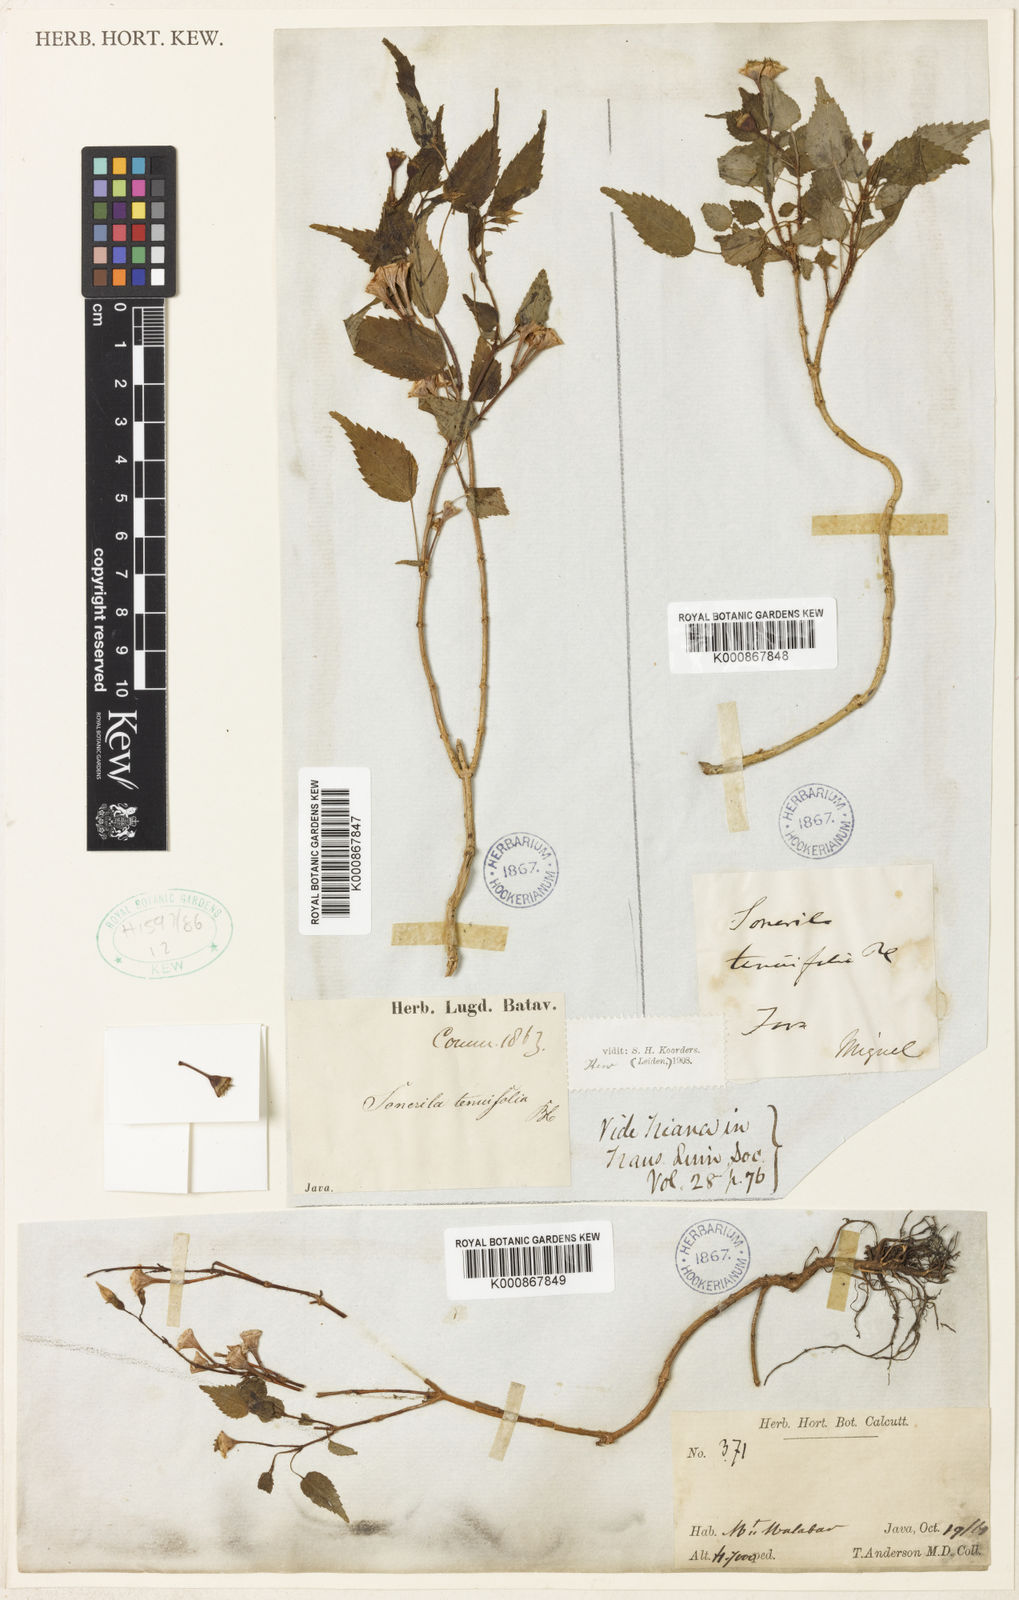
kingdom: Plantae
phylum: Tracheophyta
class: Magnoliopsida
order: Myrtales
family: Melastomataceae
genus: Sonerila
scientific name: Sonerila tenuifolia
